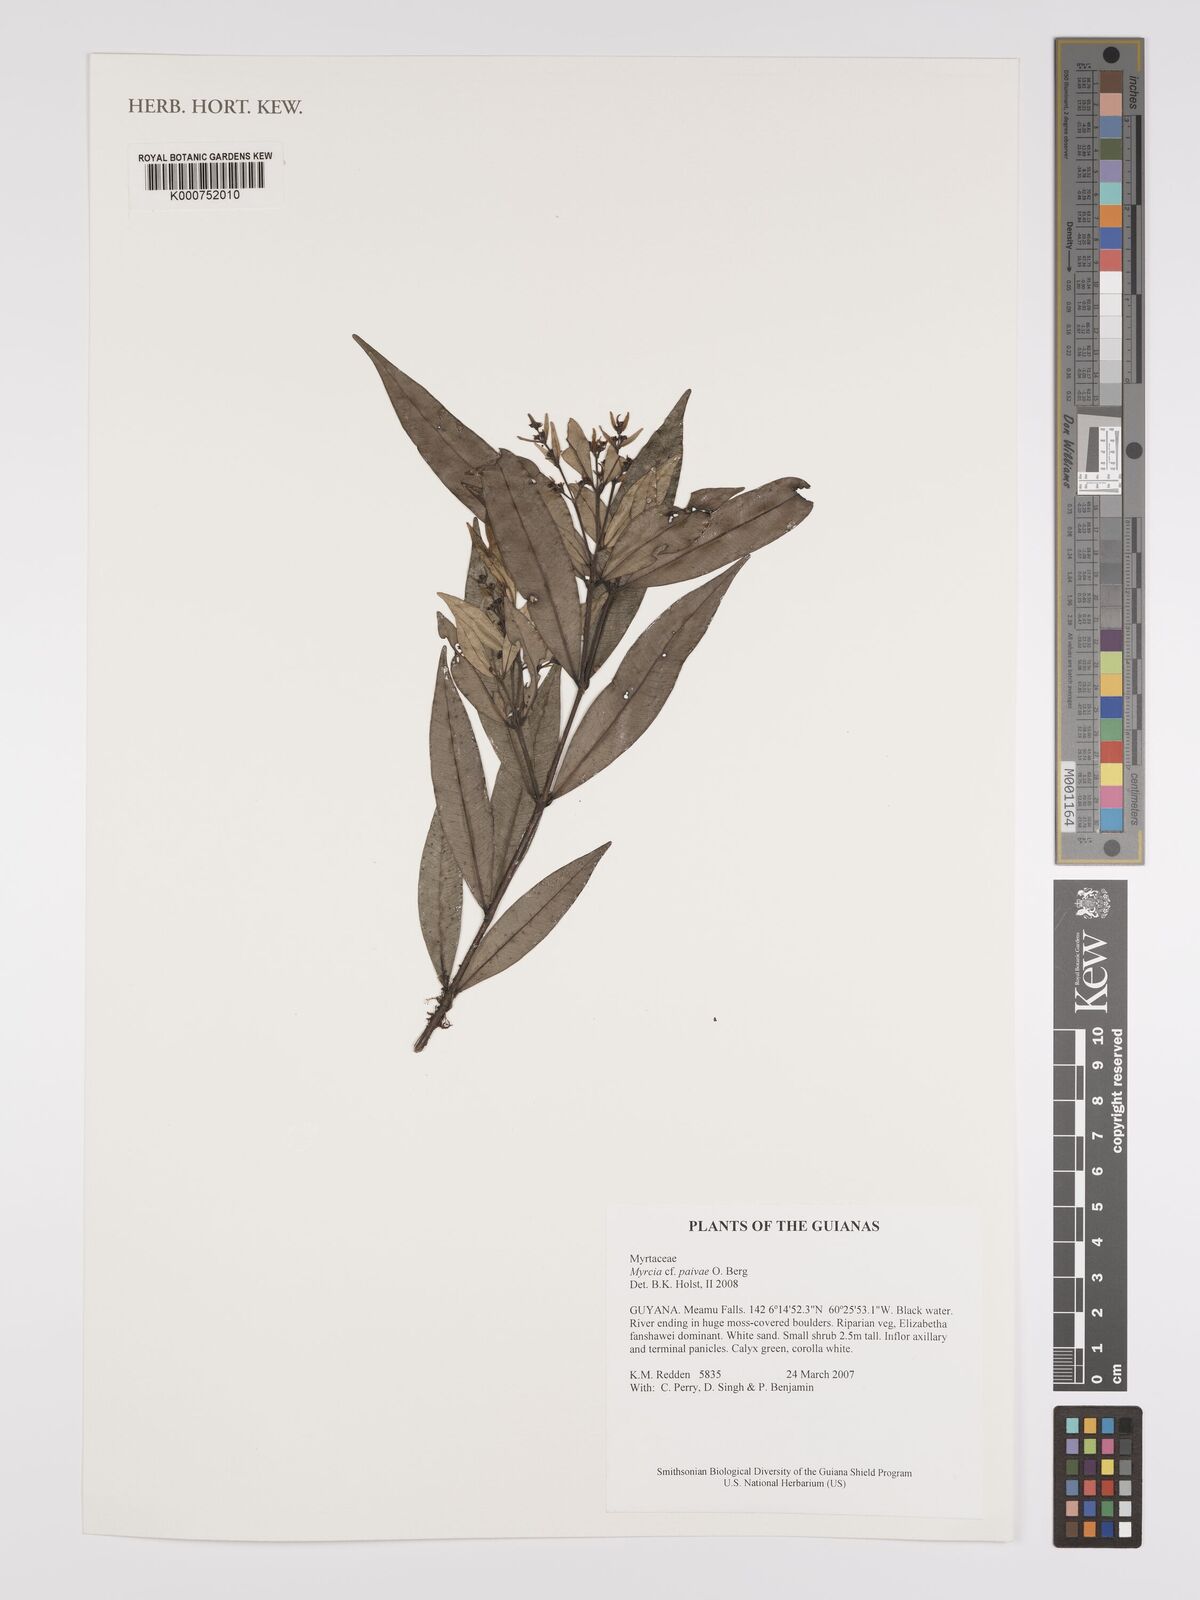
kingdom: Plantae
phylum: Tracheophyta
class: Magnoliopsida
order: Myrtales
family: Myrtaceae
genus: Myrcia
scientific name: Myrcia paivae
